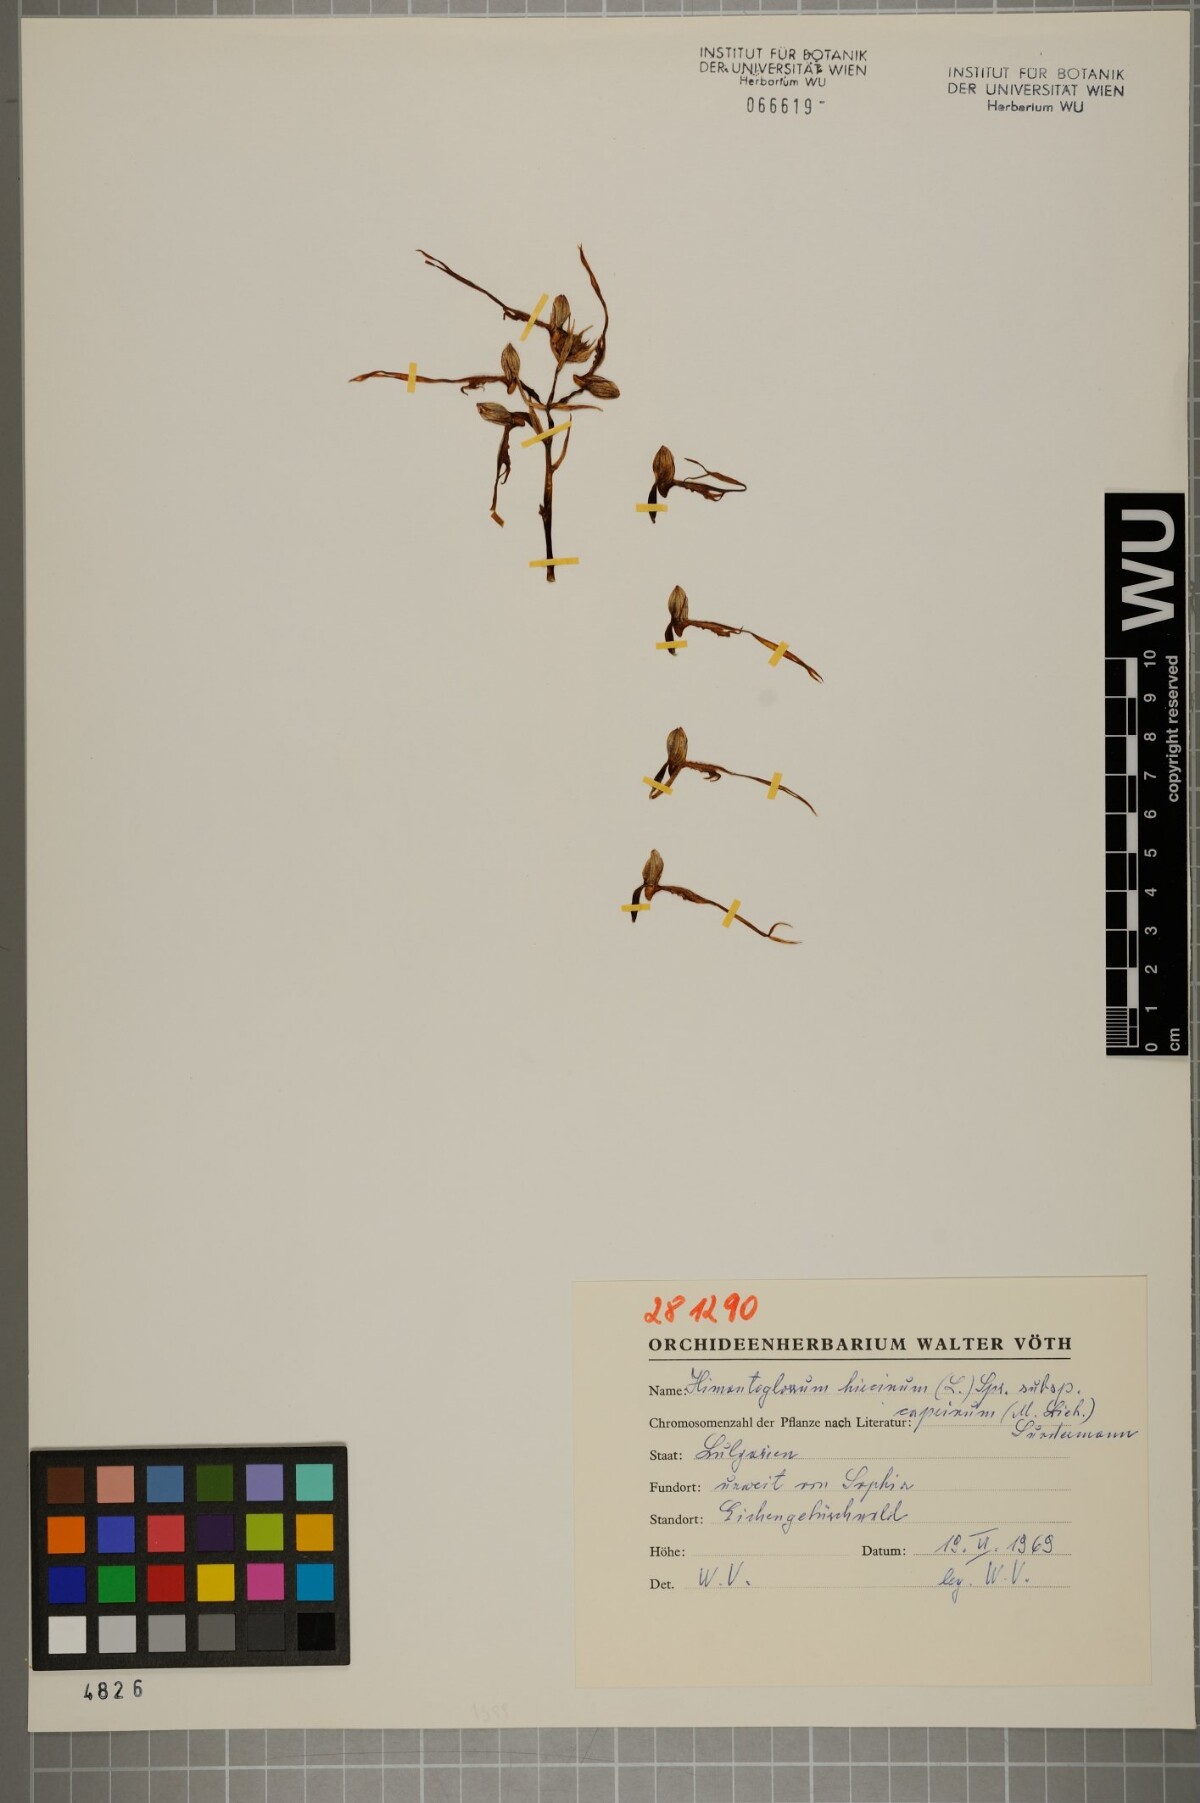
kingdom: Plantae
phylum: Tracheophyta
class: Liliopsida
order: Asparagales
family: Orchidaceae
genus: Himantoglossum
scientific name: Himantoglossum hircinum
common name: Lizard orchid
